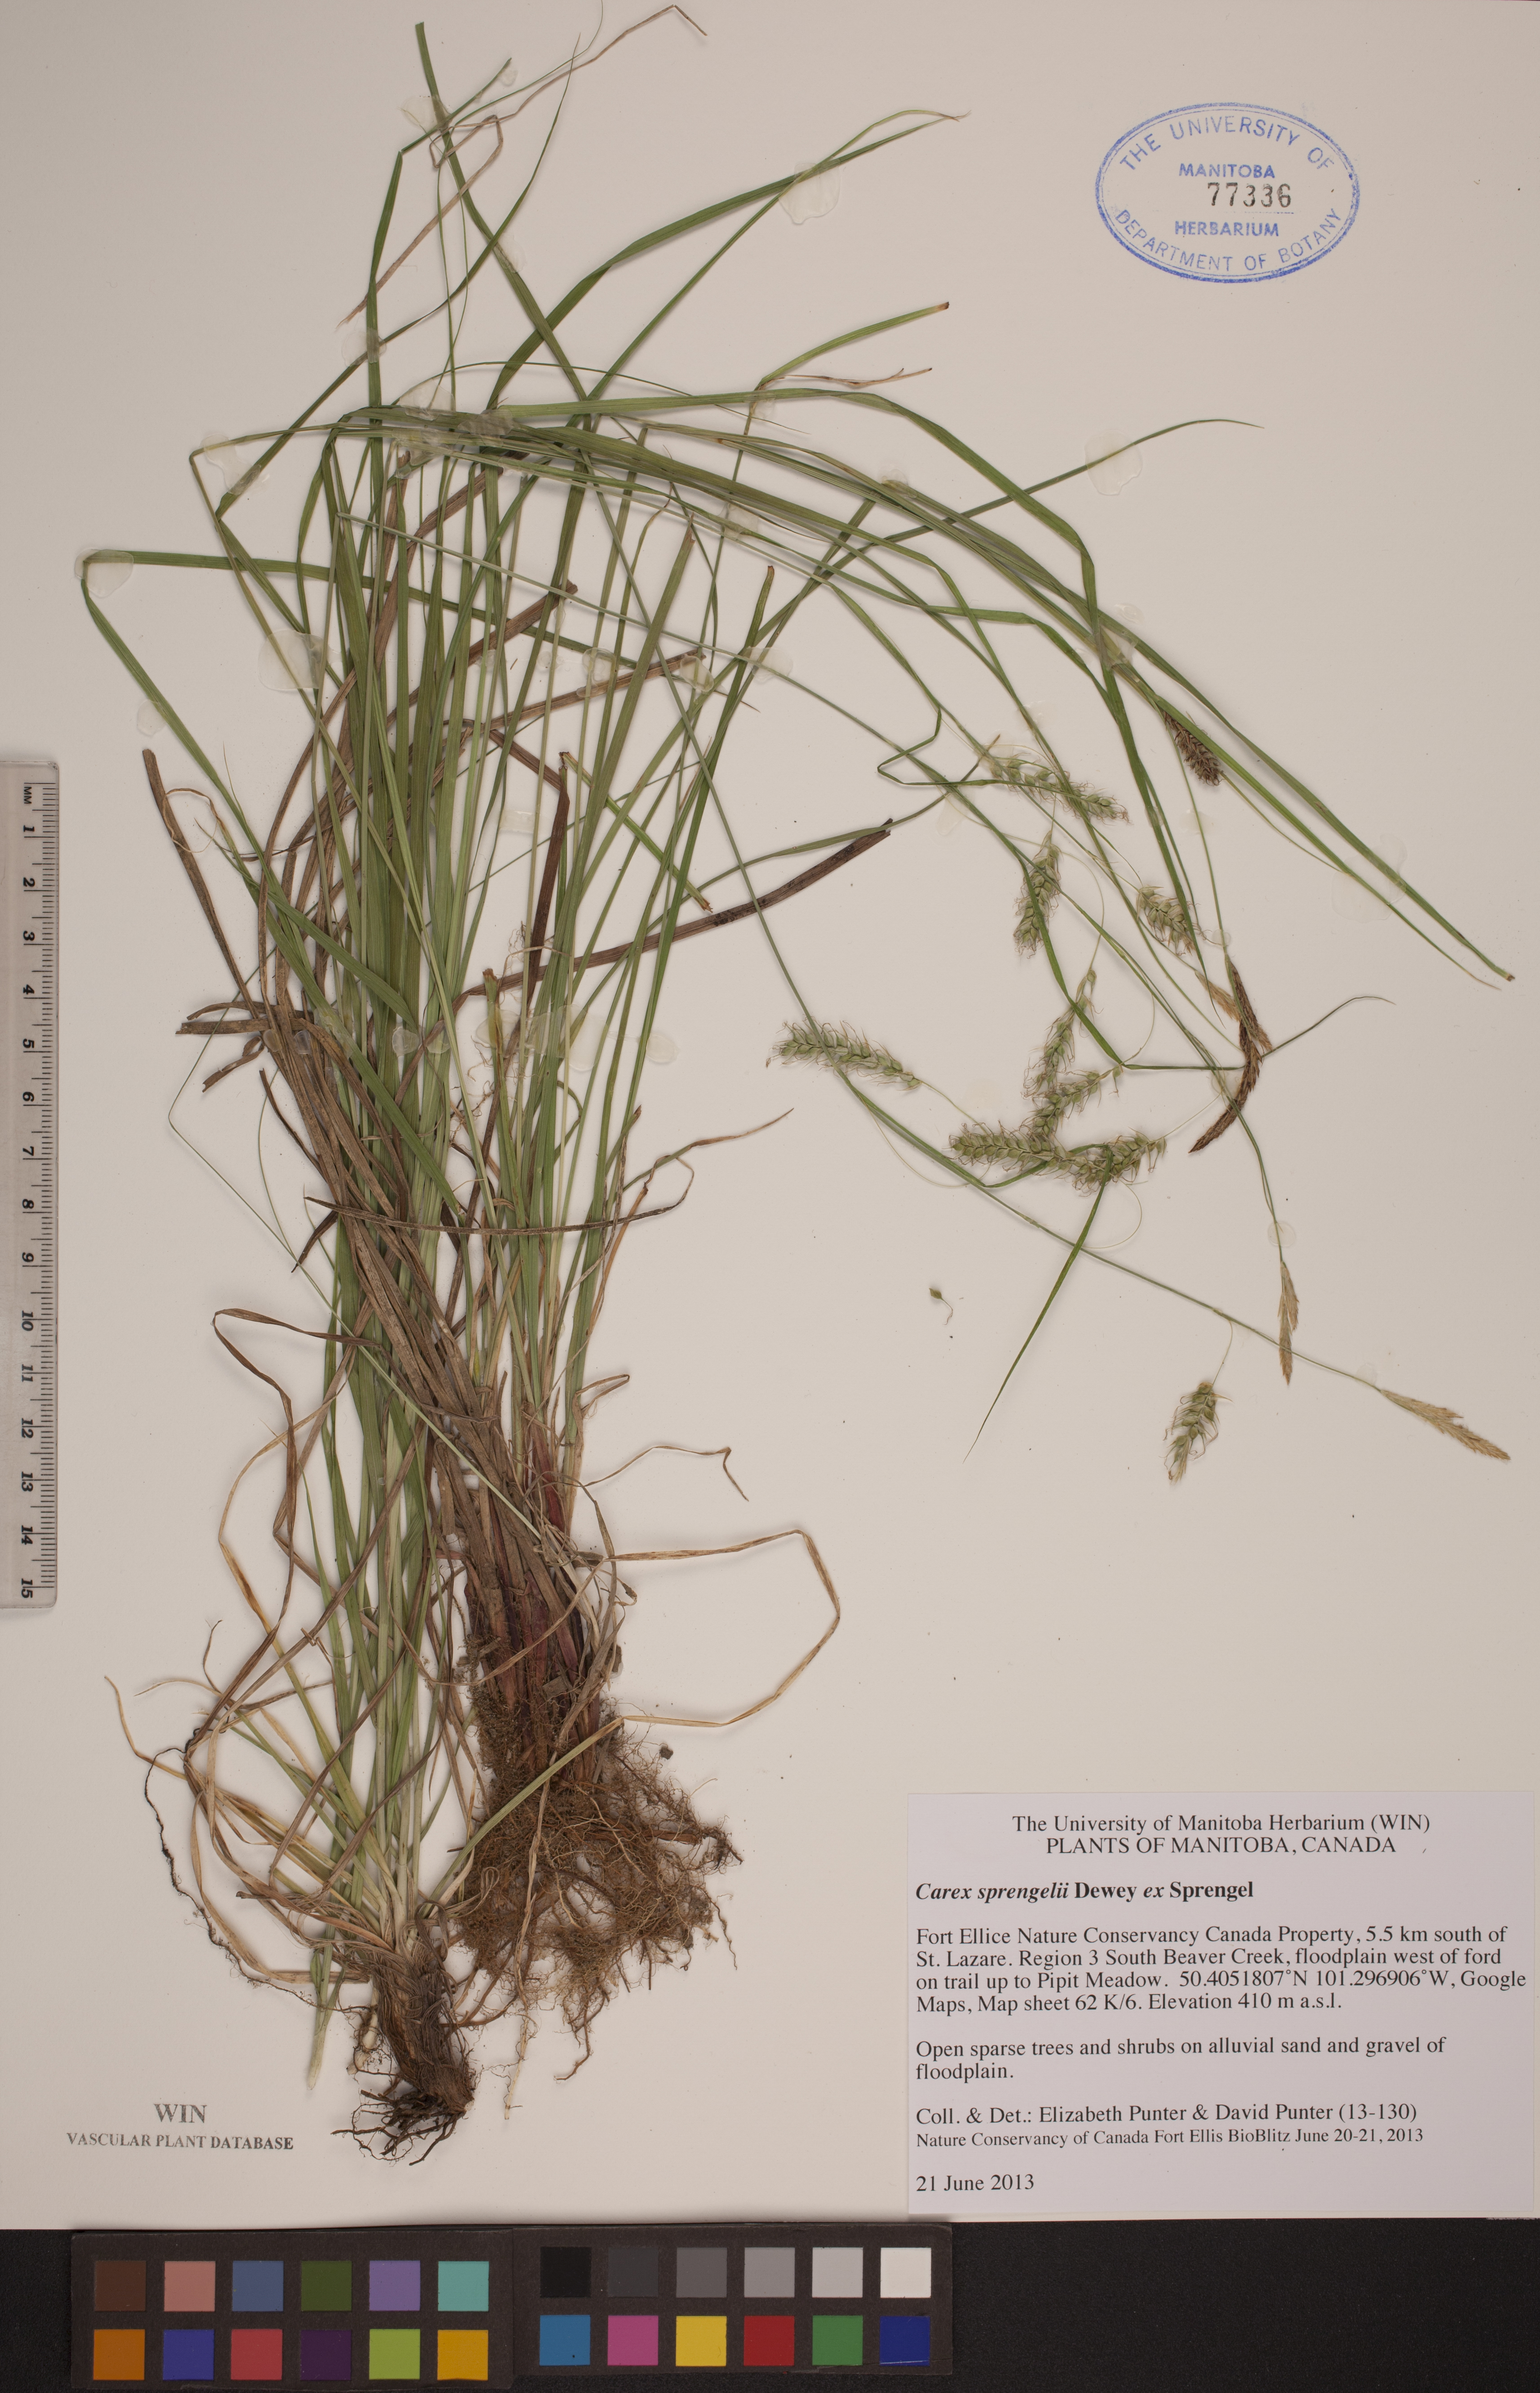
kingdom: Plantae
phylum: Tracheophyta
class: Liliopsida
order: Poales
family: Cyperaceae
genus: Carex
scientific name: Carex sprengelii
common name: Long-beaked sedge
